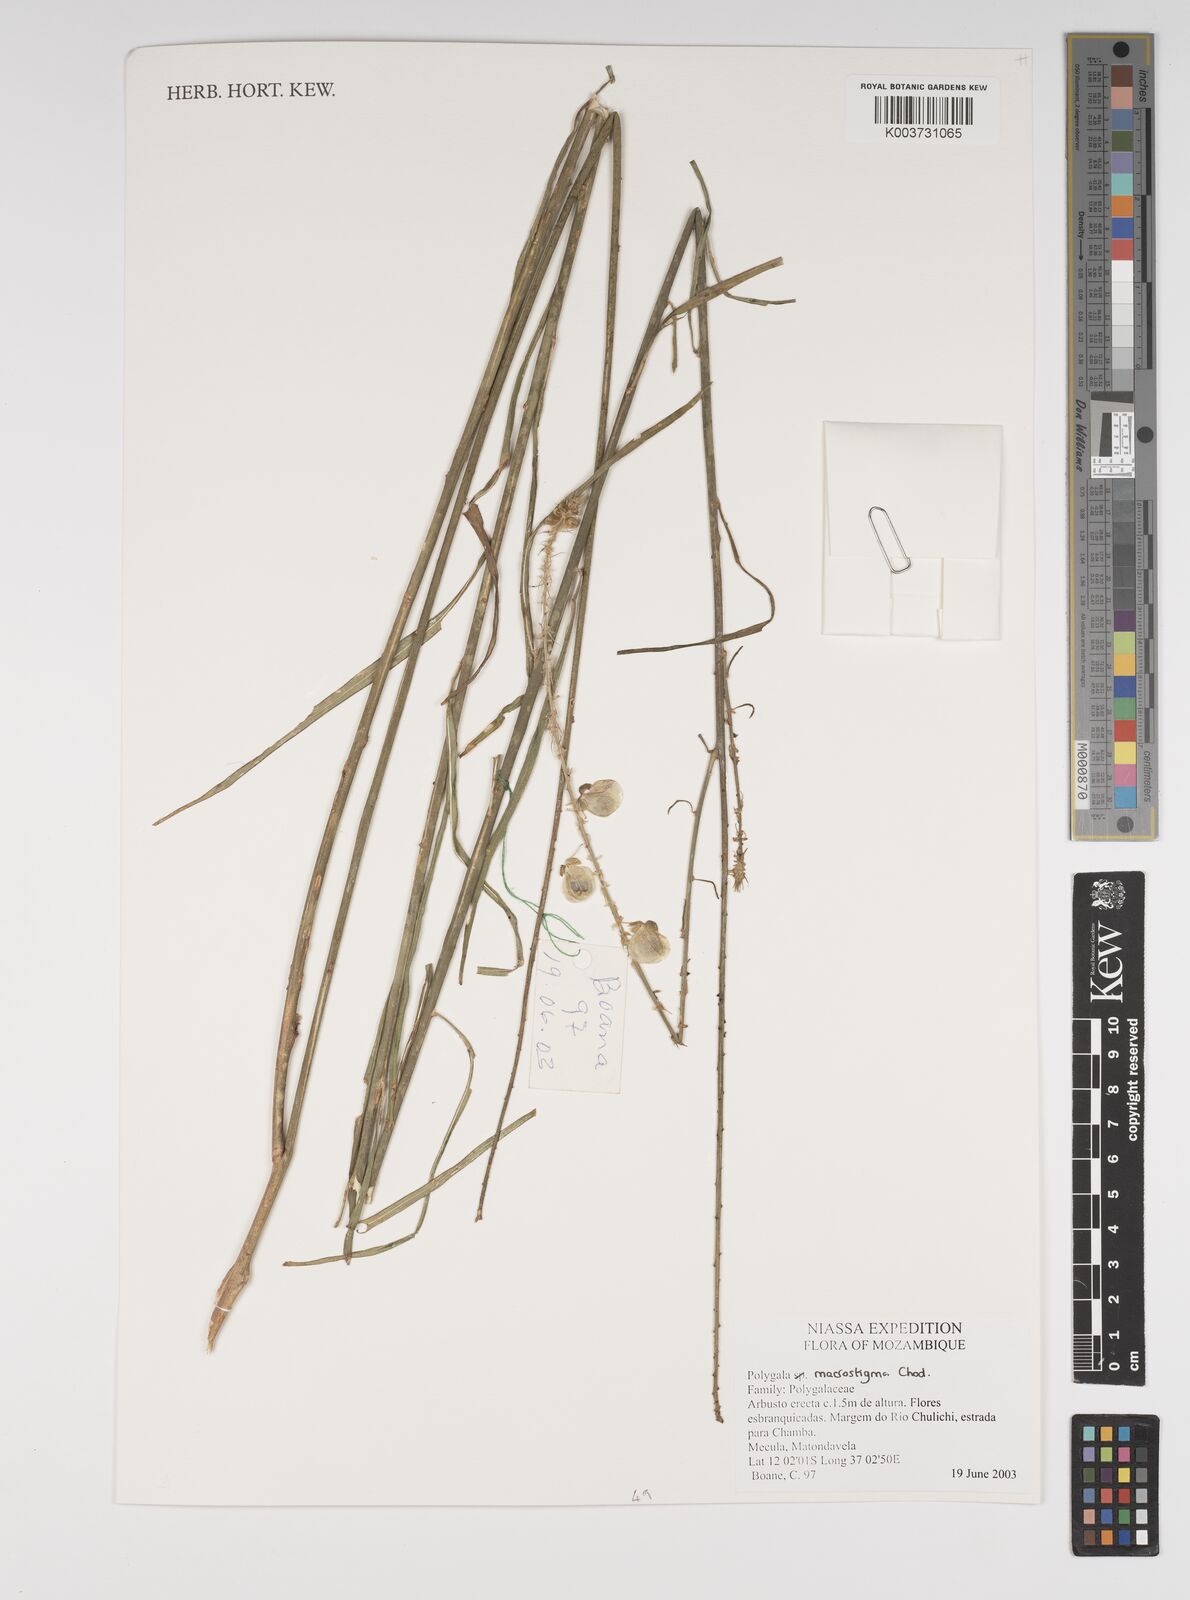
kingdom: Plantae
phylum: Tracheophyta
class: Magnoliopsida
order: Fabales
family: Polygalaceae
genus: Polygala
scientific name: Polygala macrostigma
